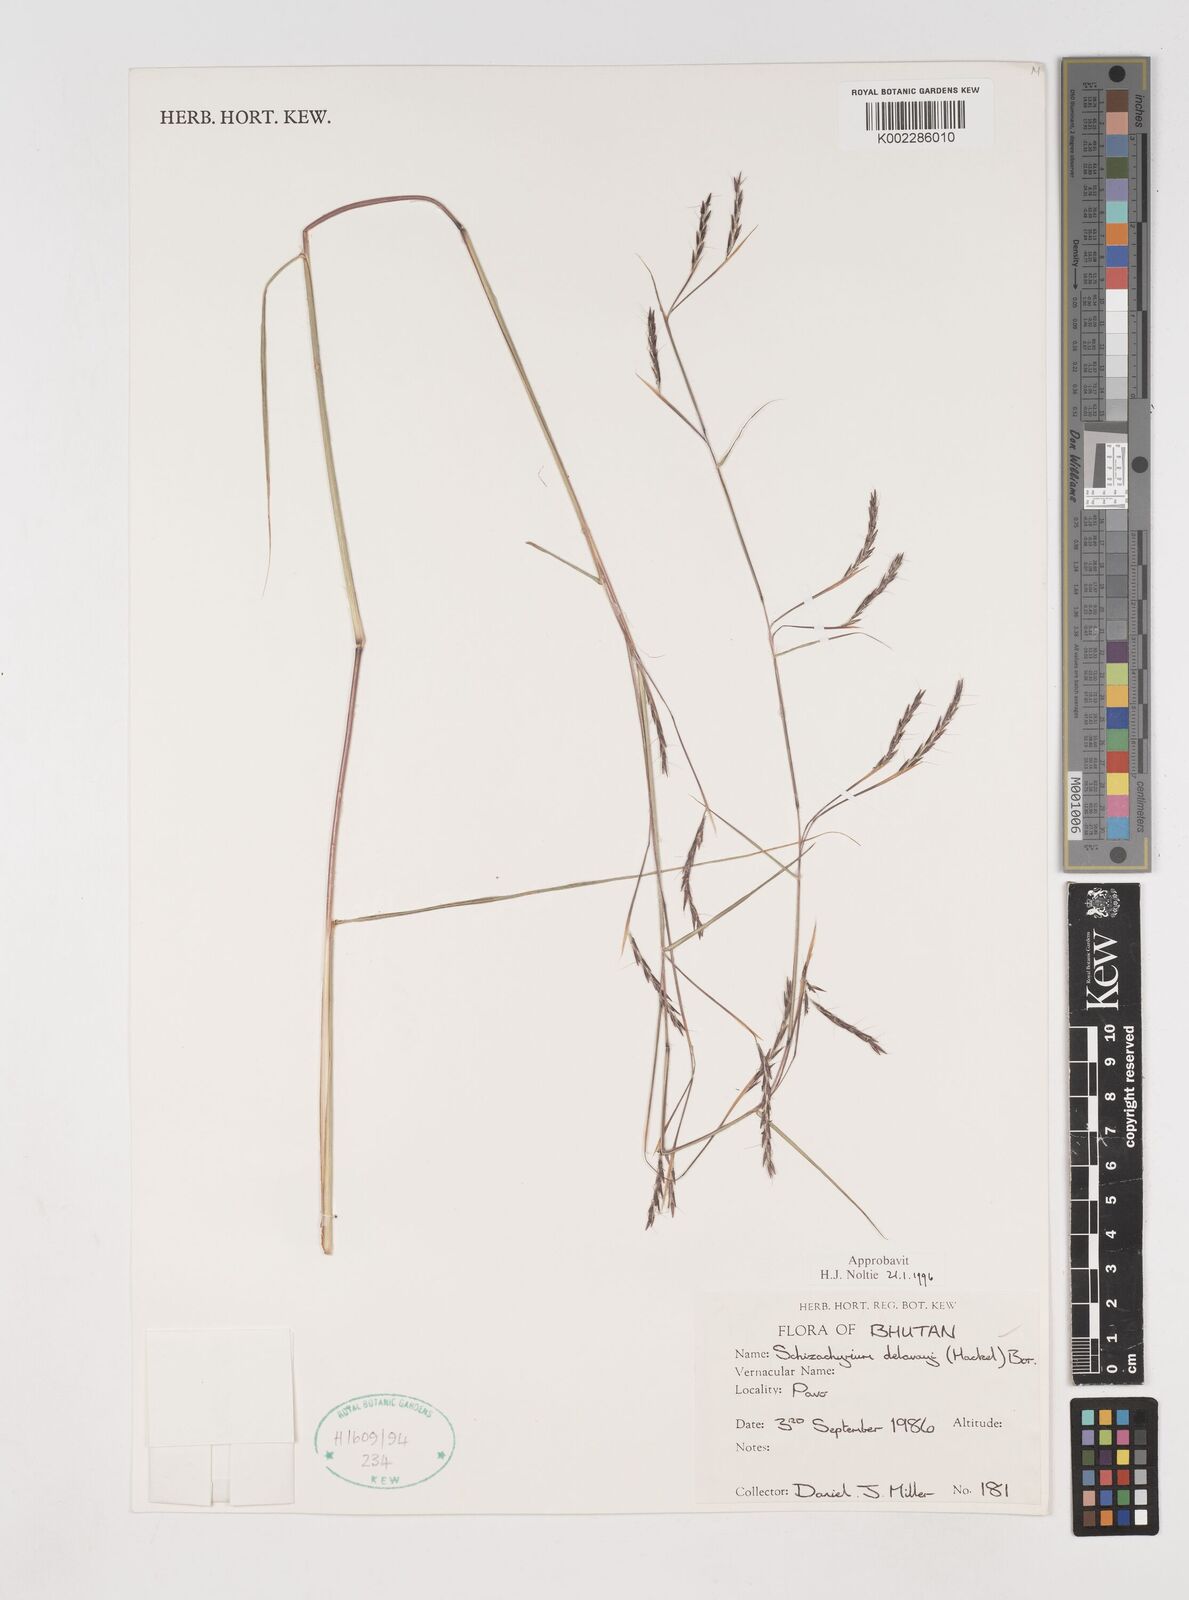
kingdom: Plantae
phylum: Tracheophyta
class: Liliopsida
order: Poales
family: Poaceae
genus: Schizachyrium
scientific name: Schizachyrium delavayi
